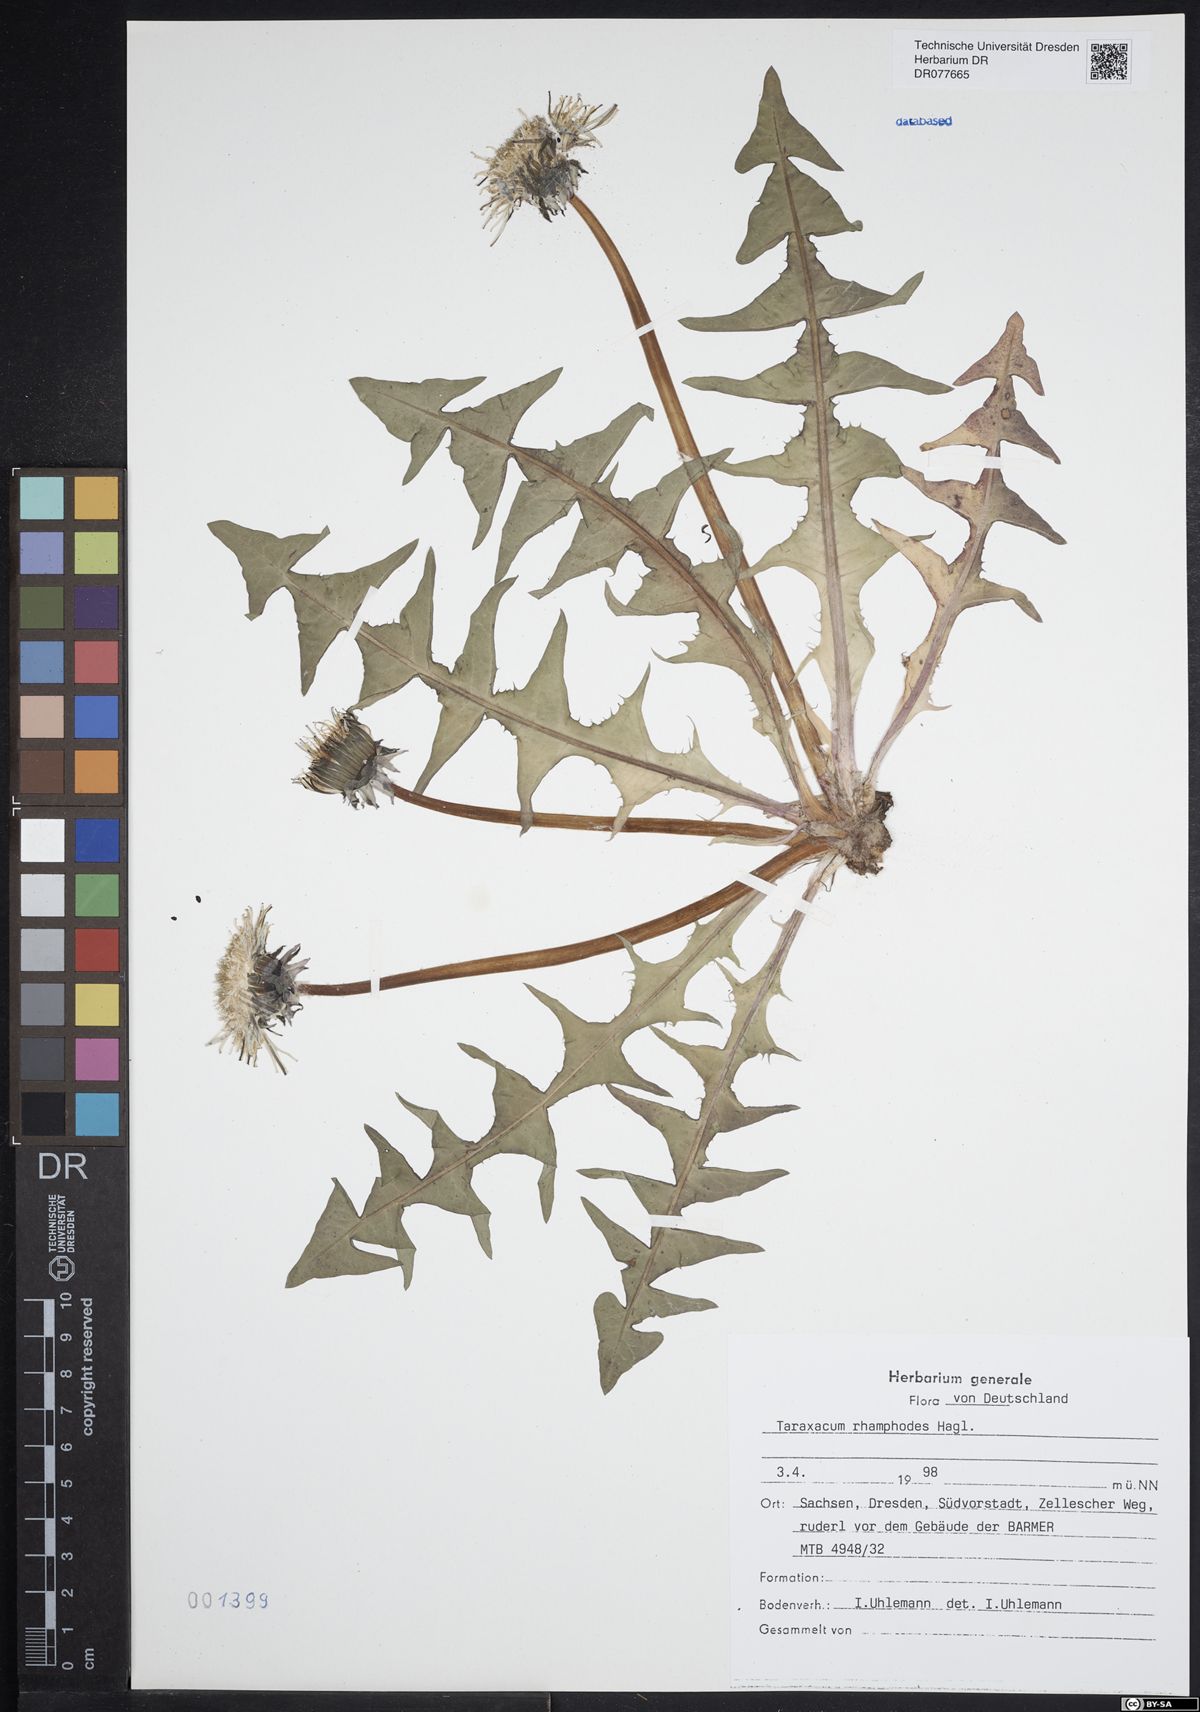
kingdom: Plantae
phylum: Tracheophyta
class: Magnoliopsida
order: Asterales
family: Asteraceae
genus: Taraxacum
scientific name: Taraxacum rhamphodes
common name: Robust dandelion
